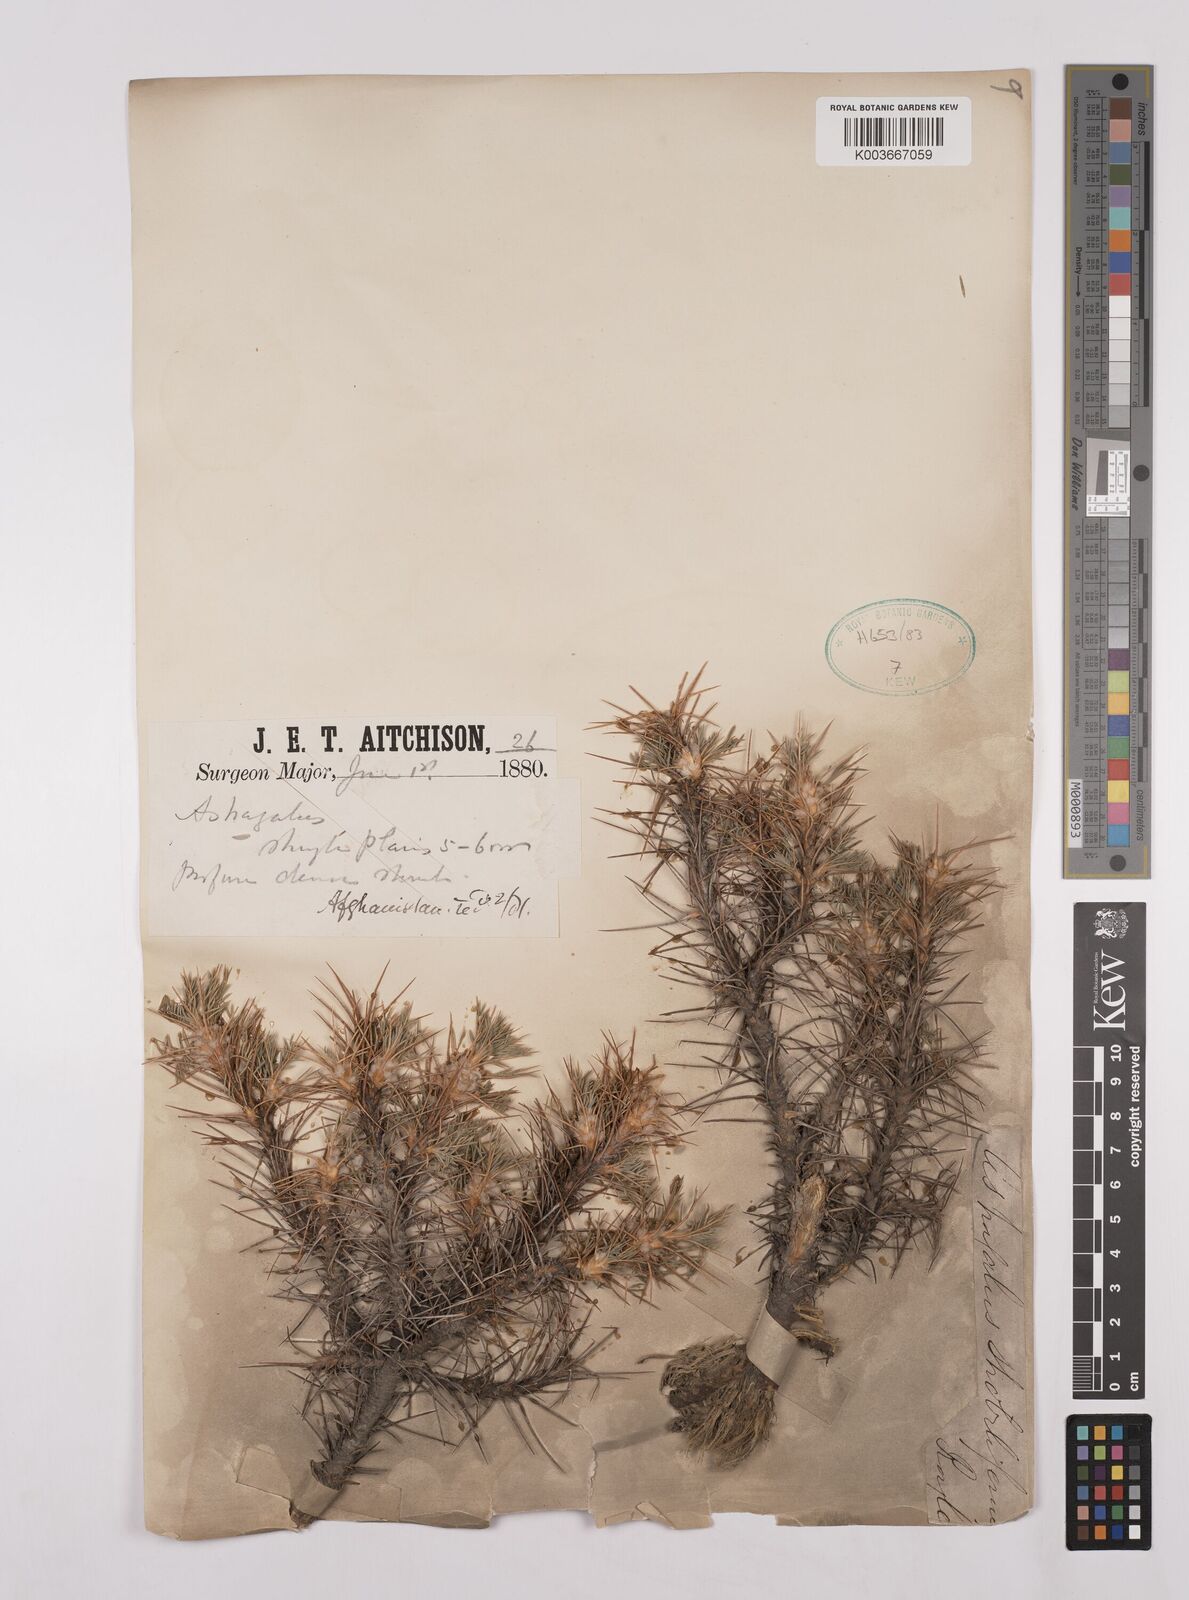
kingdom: Plantae
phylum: Tracheophyta
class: Magnoliopsida
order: Fabales
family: Fabaceae
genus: Astragalus
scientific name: Astragalus diphtherites
